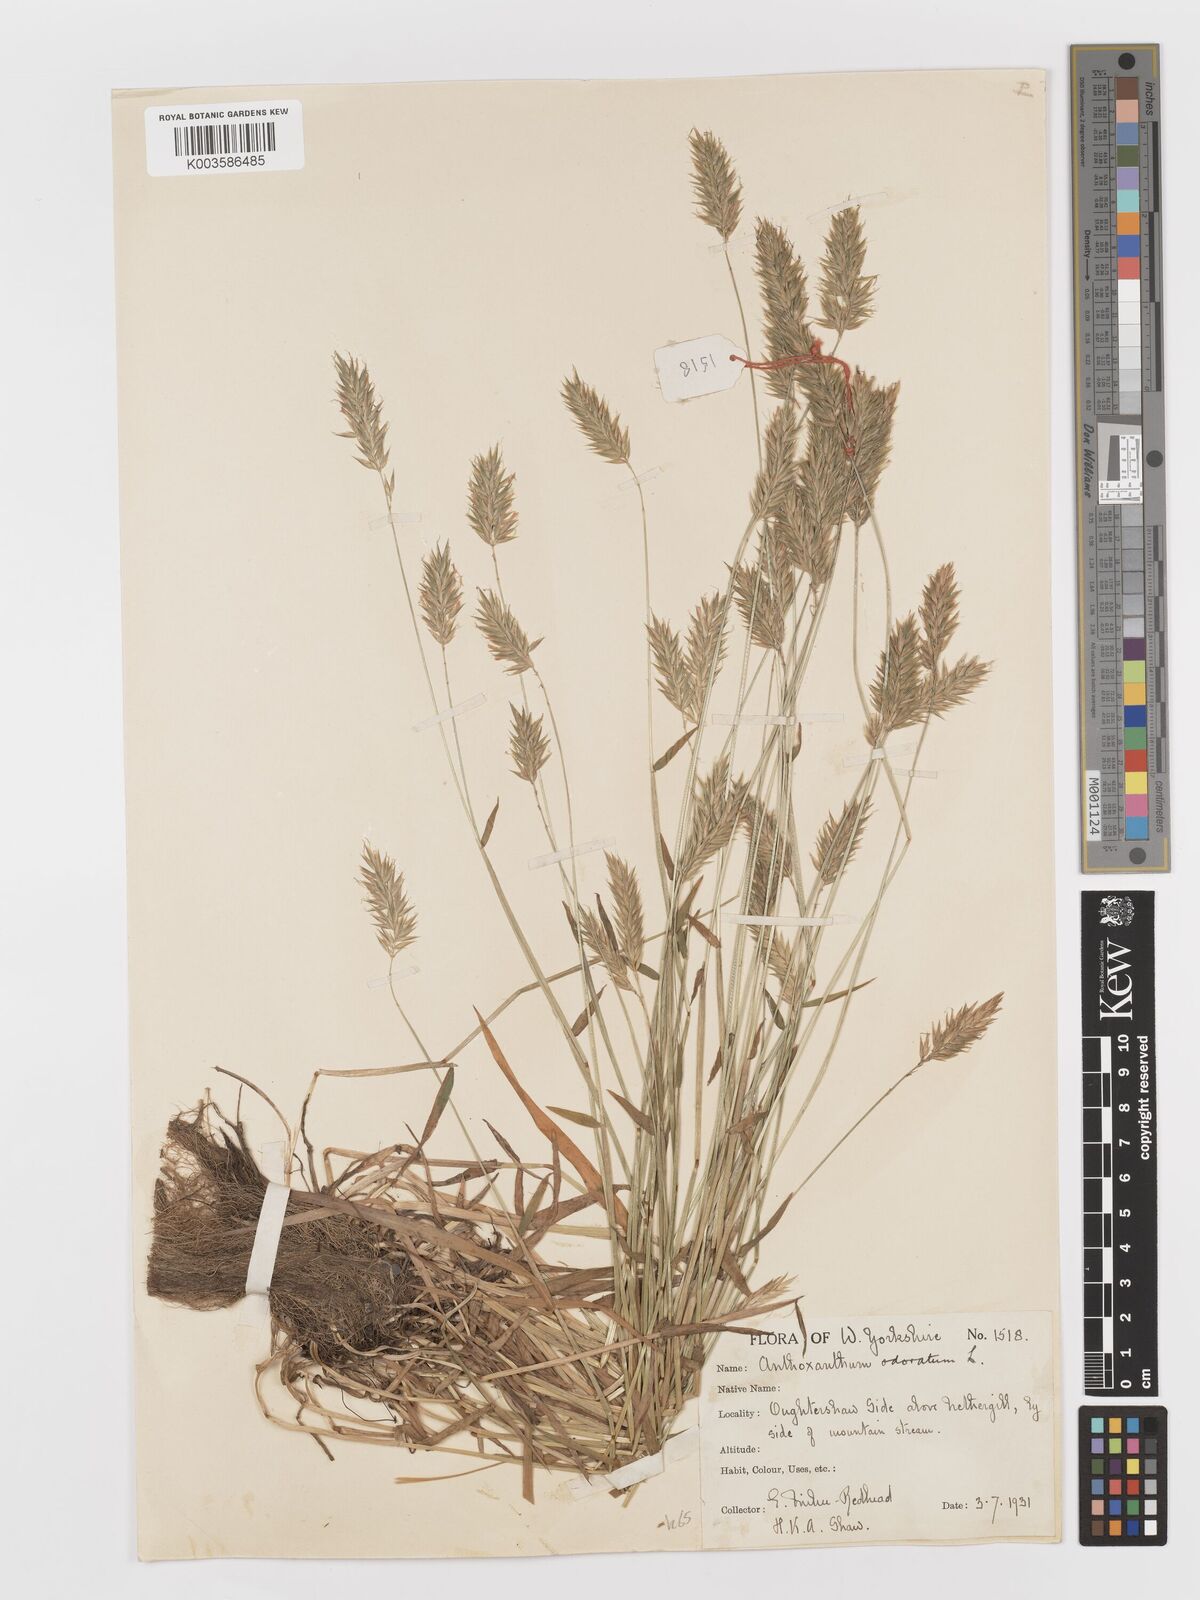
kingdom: Plantae
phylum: Tracheophyta
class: Liliopsida
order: Poales
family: Poaceae
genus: Anthoxanthum
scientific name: Anthoxanthum odoratum
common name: Sweet vernalgrass
